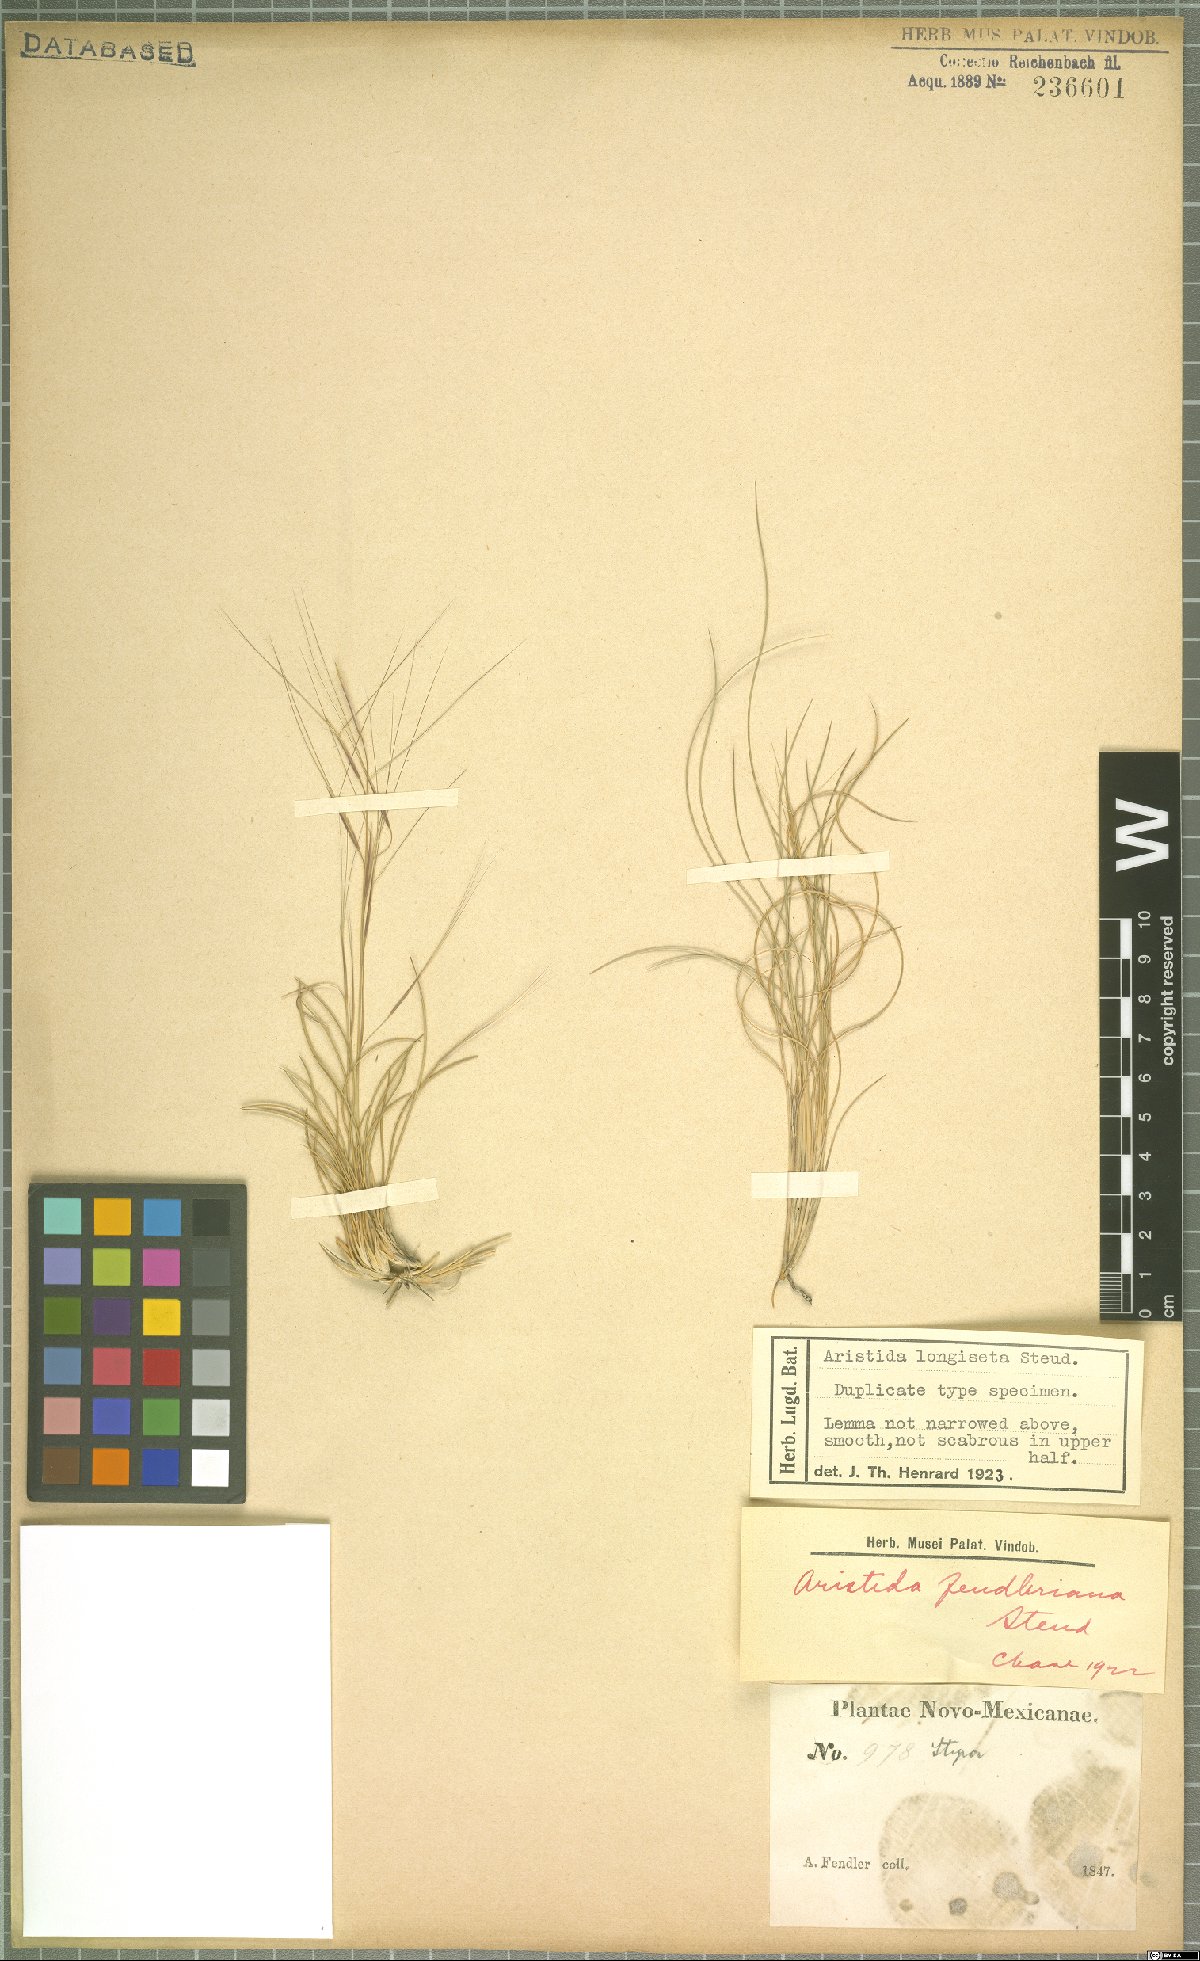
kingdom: Plantae
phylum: Tracheophyta
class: Liliopsida
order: Poales
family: Poaceae
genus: Aristida
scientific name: Aristida longiseta
